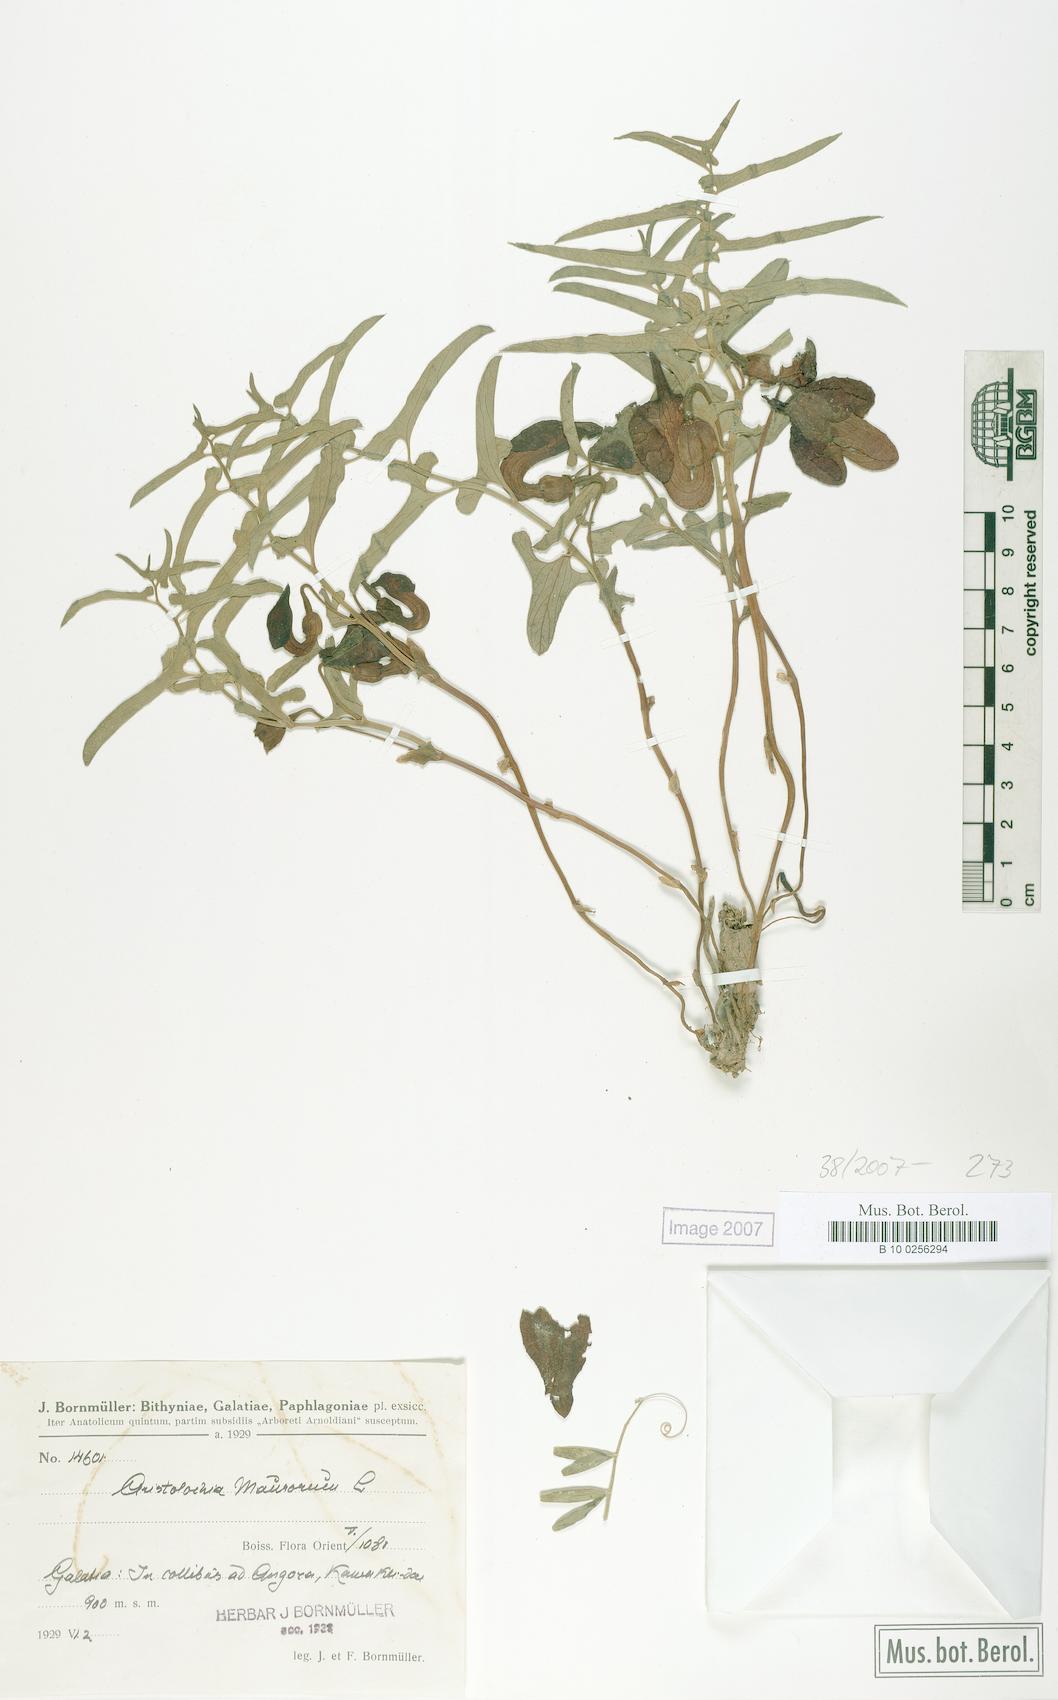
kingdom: Plantae
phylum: Tracheophyta
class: Magnoliopsida
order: Piperales
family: Aristolochiaceae
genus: Aristolochia
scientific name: Aristolochia maurorum
